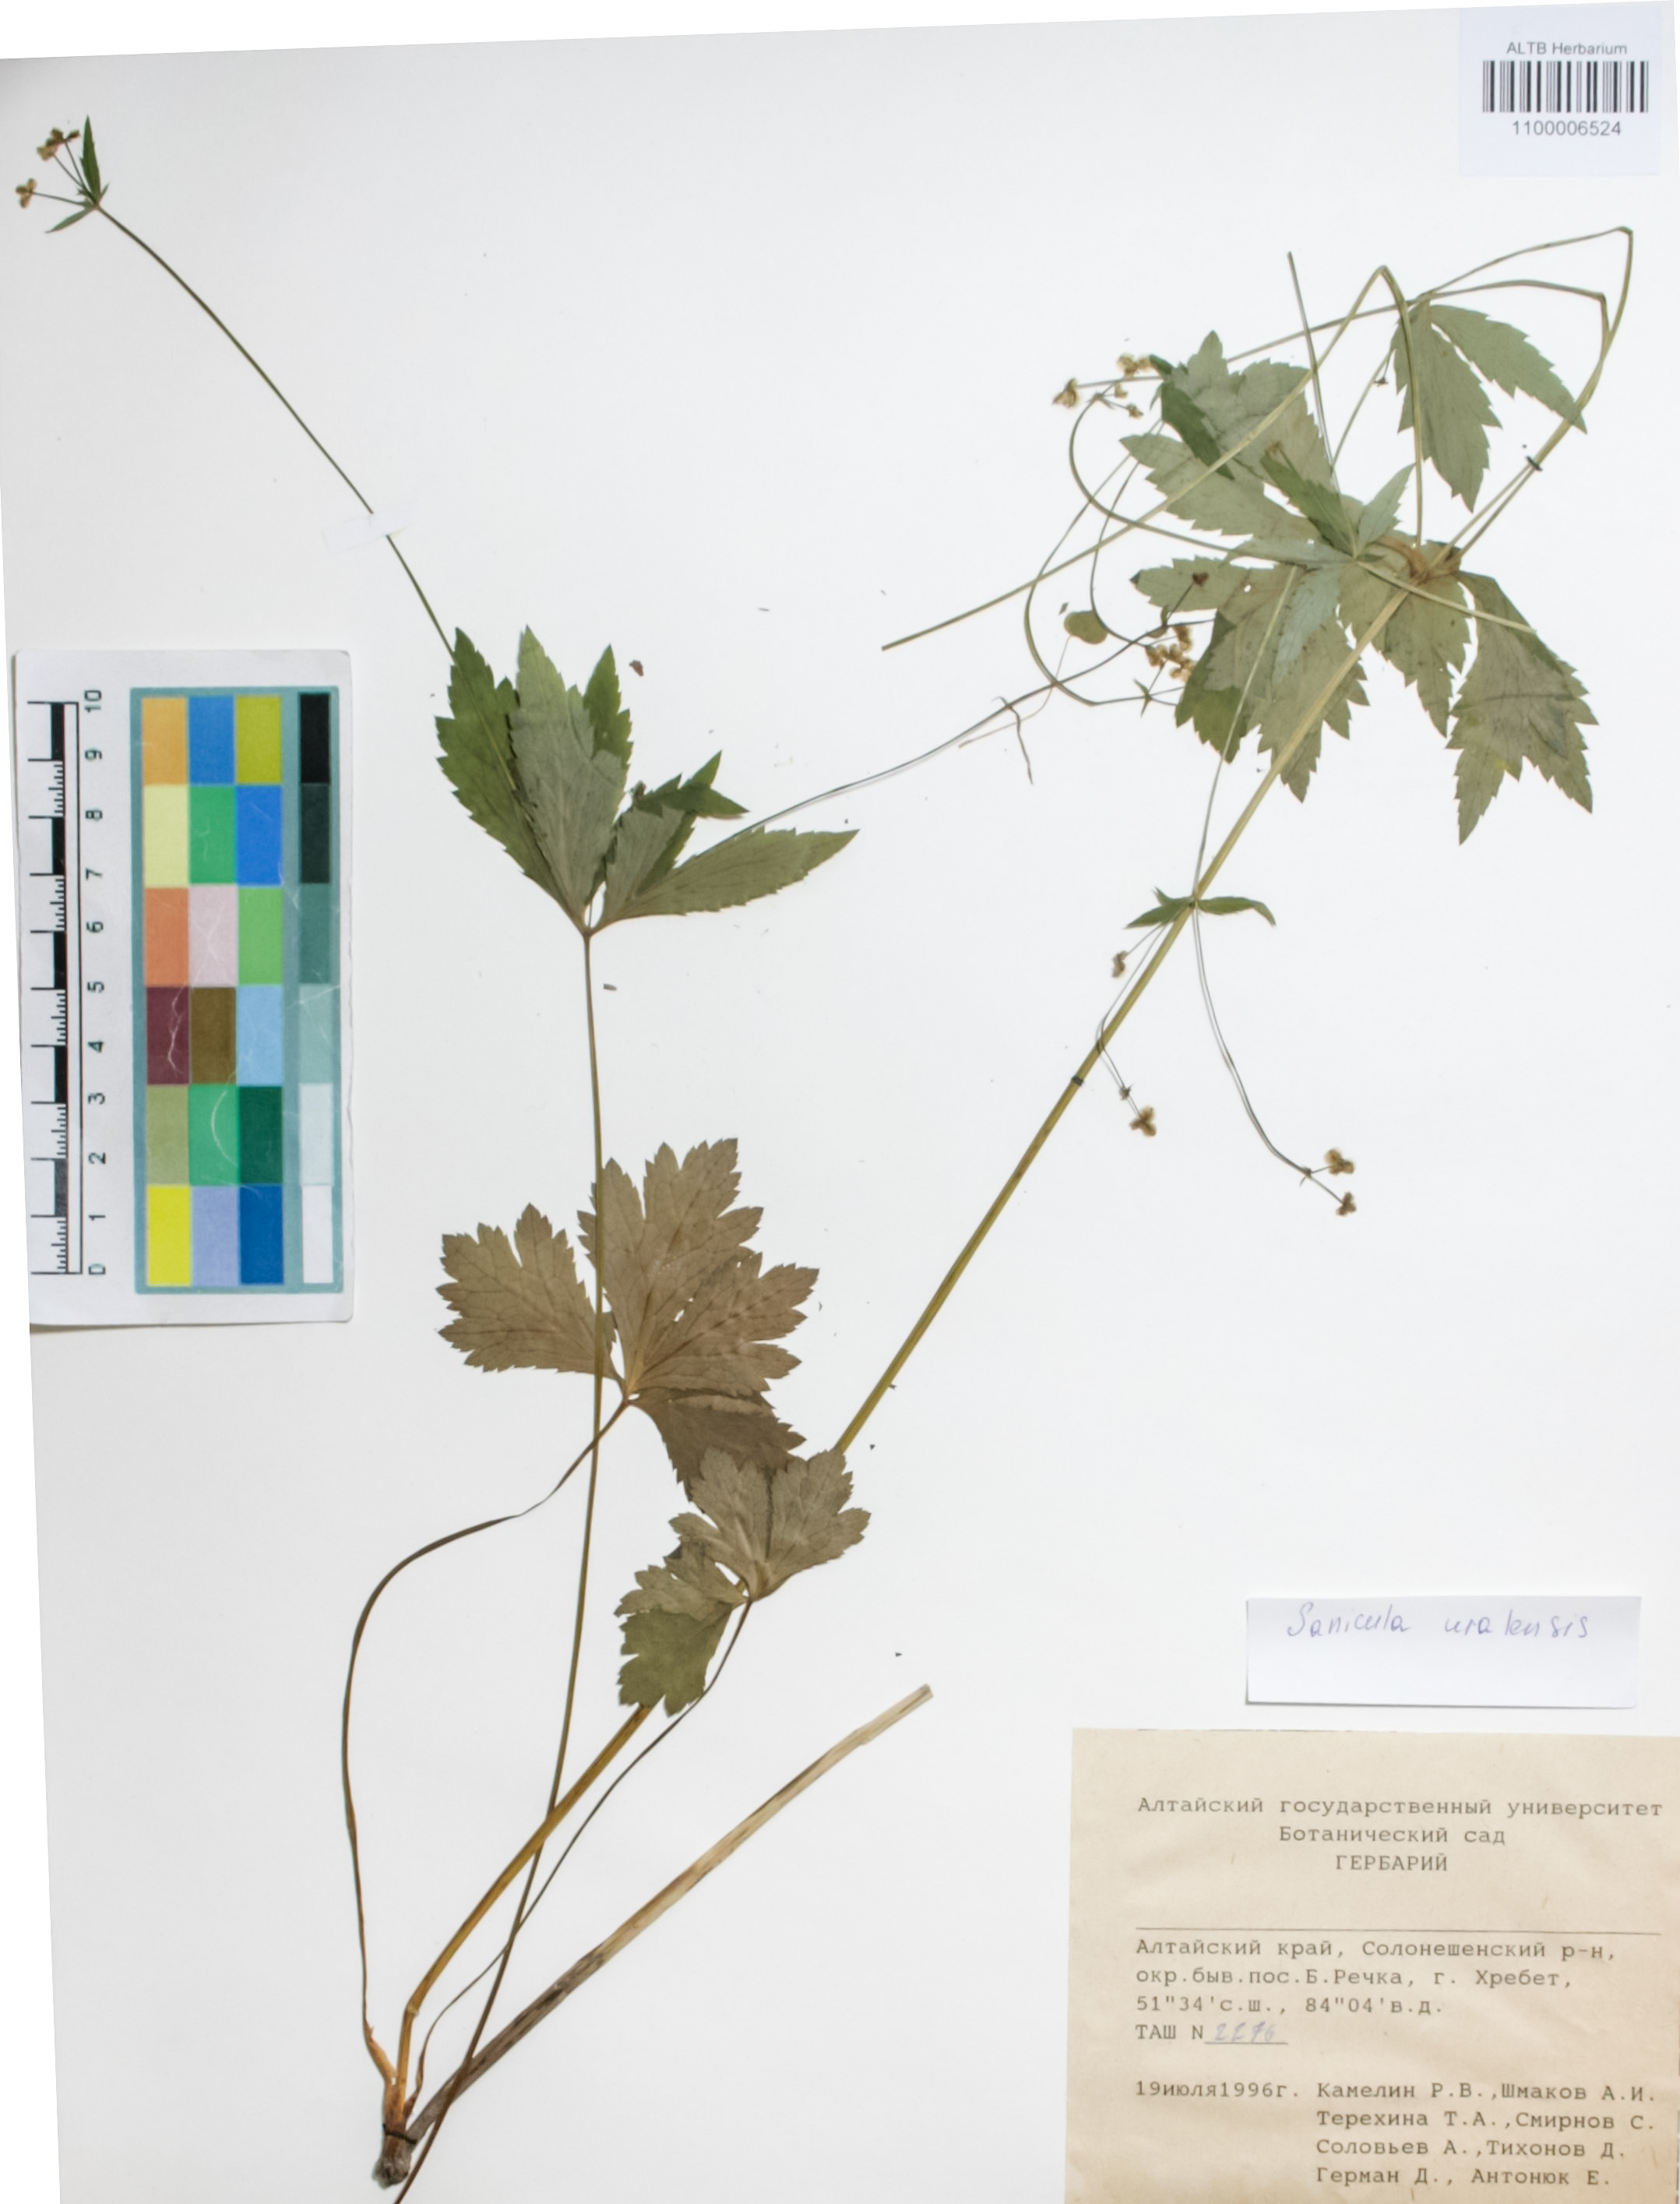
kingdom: Plantae
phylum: Tracheophyta
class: Magnoliopsida
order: Apiales
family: Apiaceae
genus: Sanicula
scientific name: Sanicula giraldii
